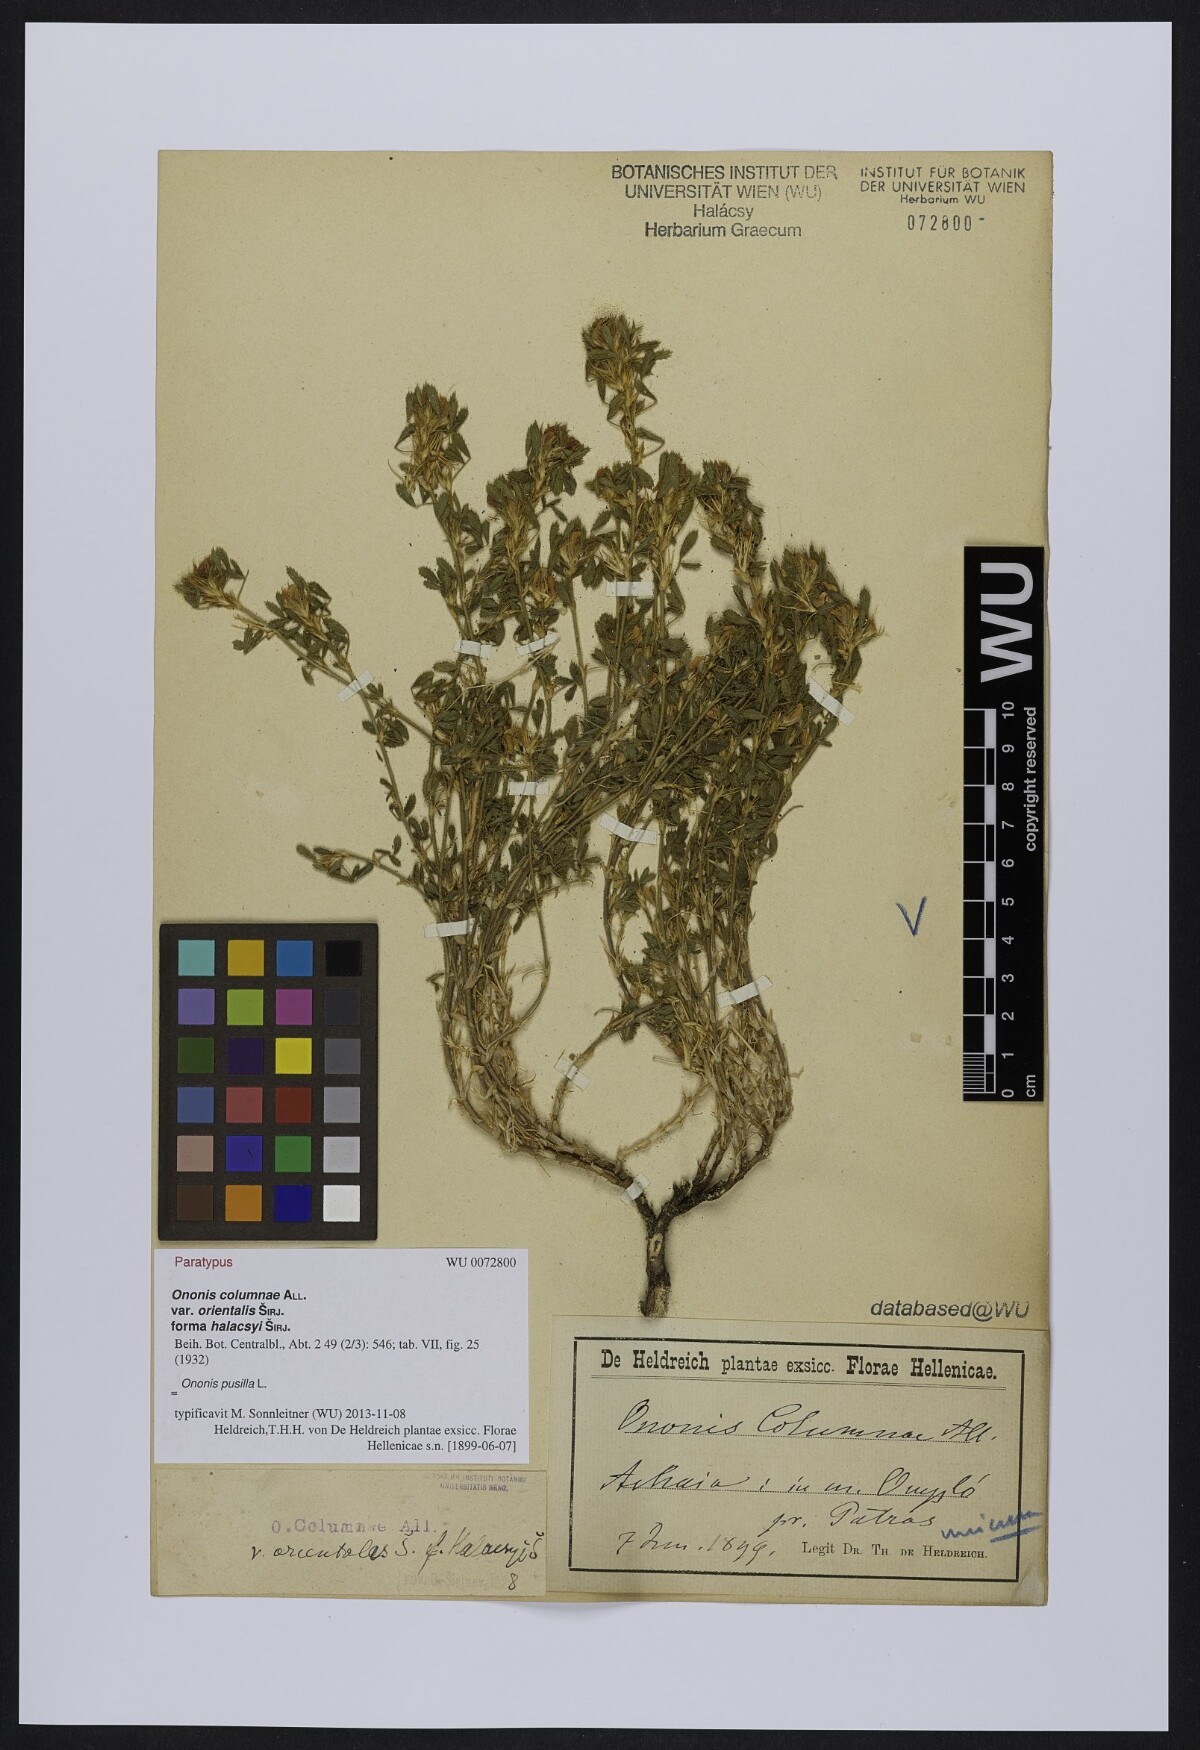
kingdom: Plantae
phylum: Tracheophyta
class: Magnoliopsida
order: Fabales
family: Fabaceae
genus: Ononis
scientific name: Ononis pusilla
